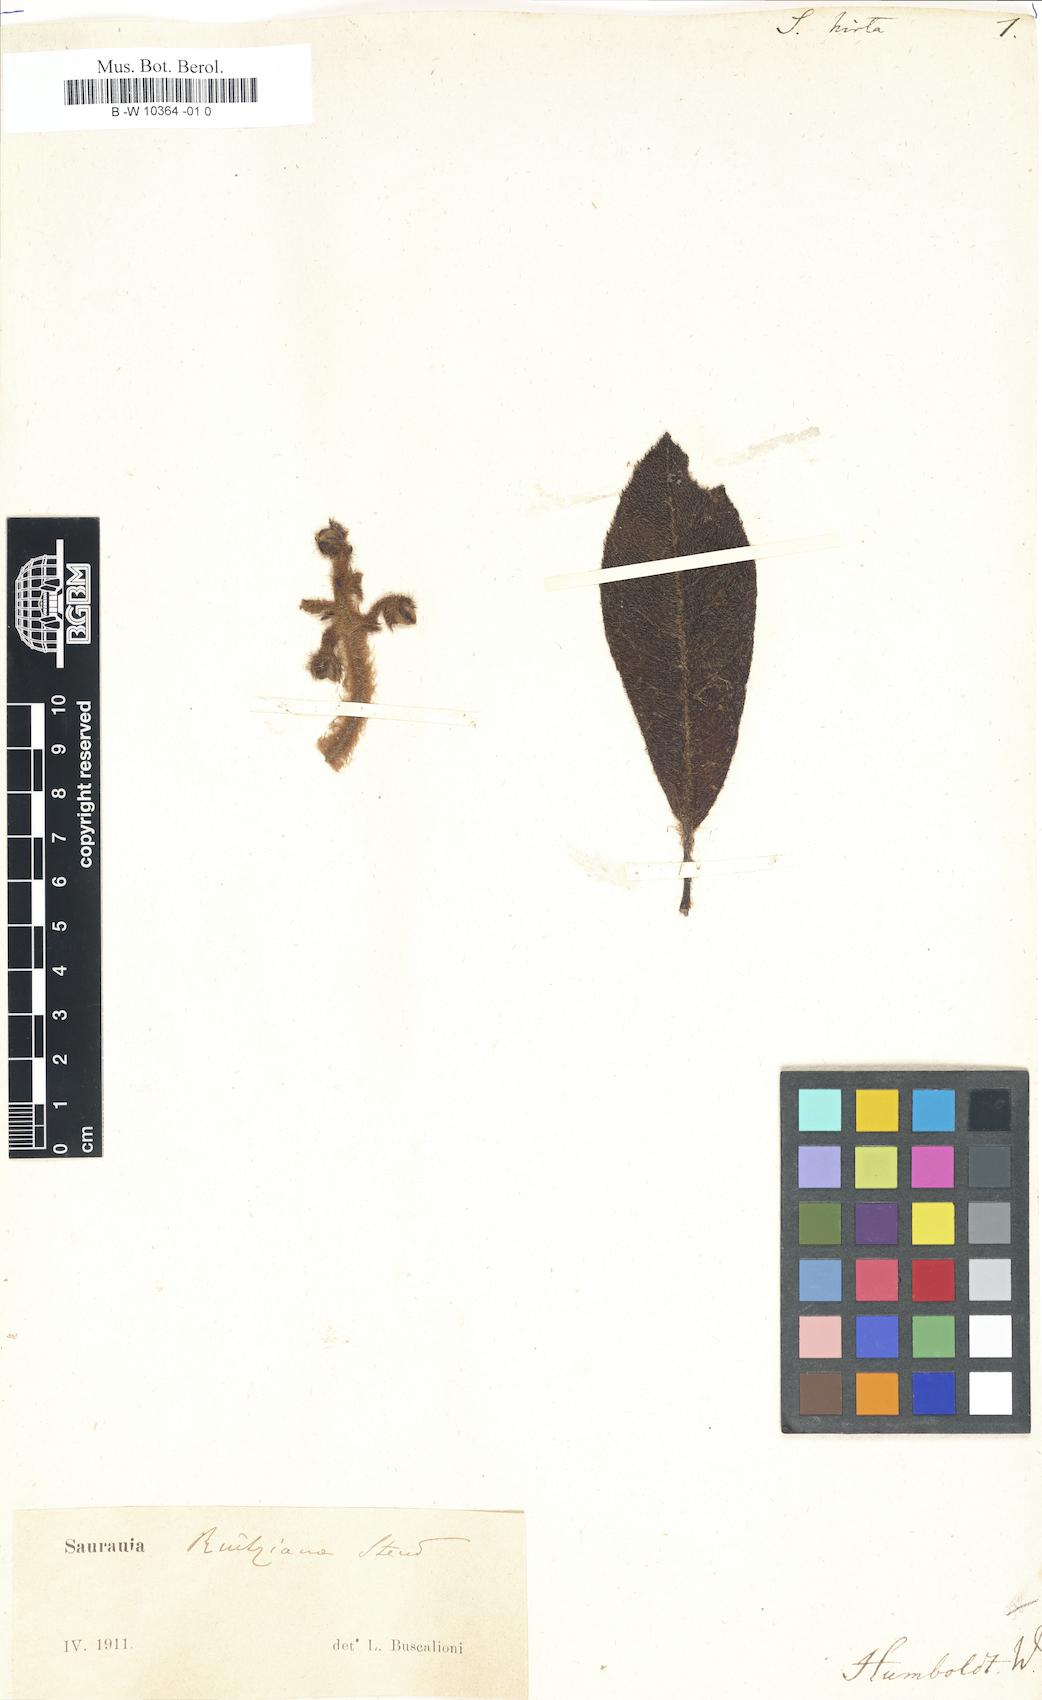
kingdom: Plantae
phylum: Tracheophyta
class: Magnoliopsida
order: Ericales
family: Actinidiaceae
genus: Saurauia
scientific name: Saurauia
